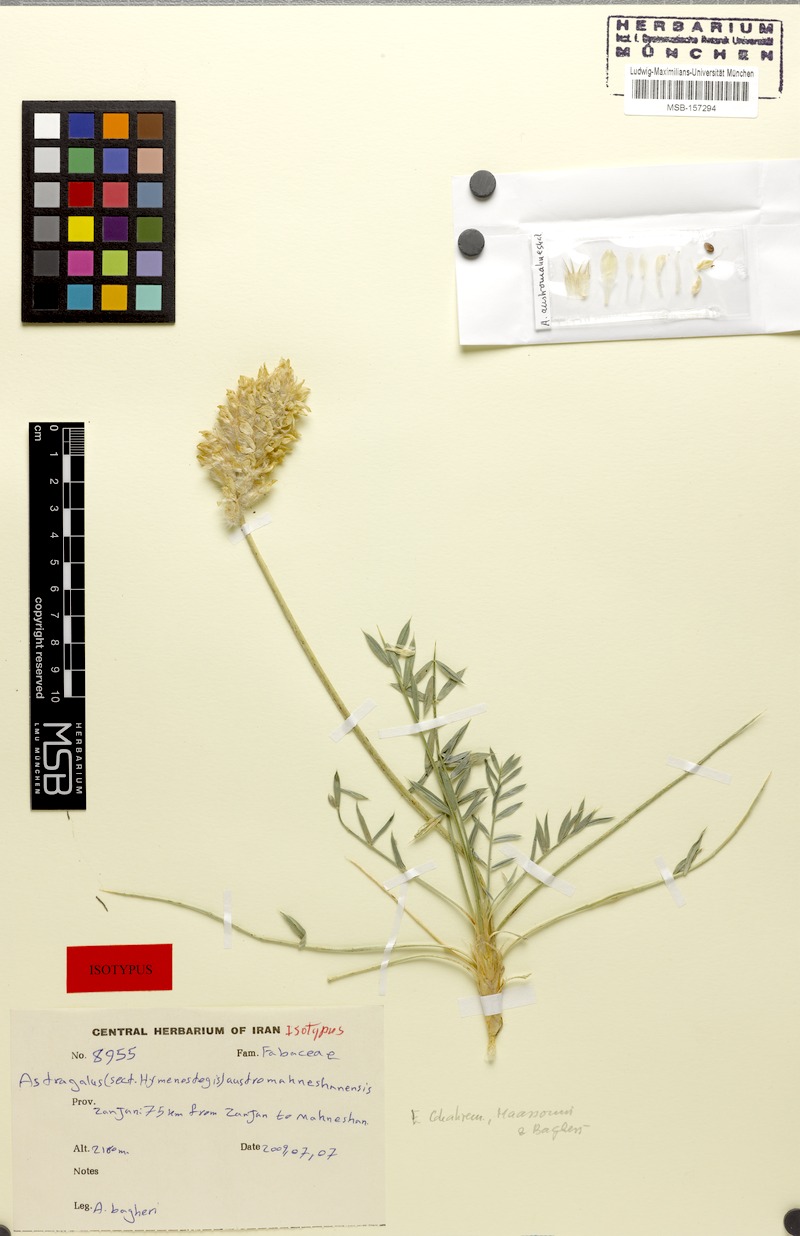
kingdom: Plantae
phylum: Tracheophyta
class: Magnoliopsida
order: Fabales
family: Fabaceae
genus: Astragalus
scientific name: Astragalus austromahneshanensis
